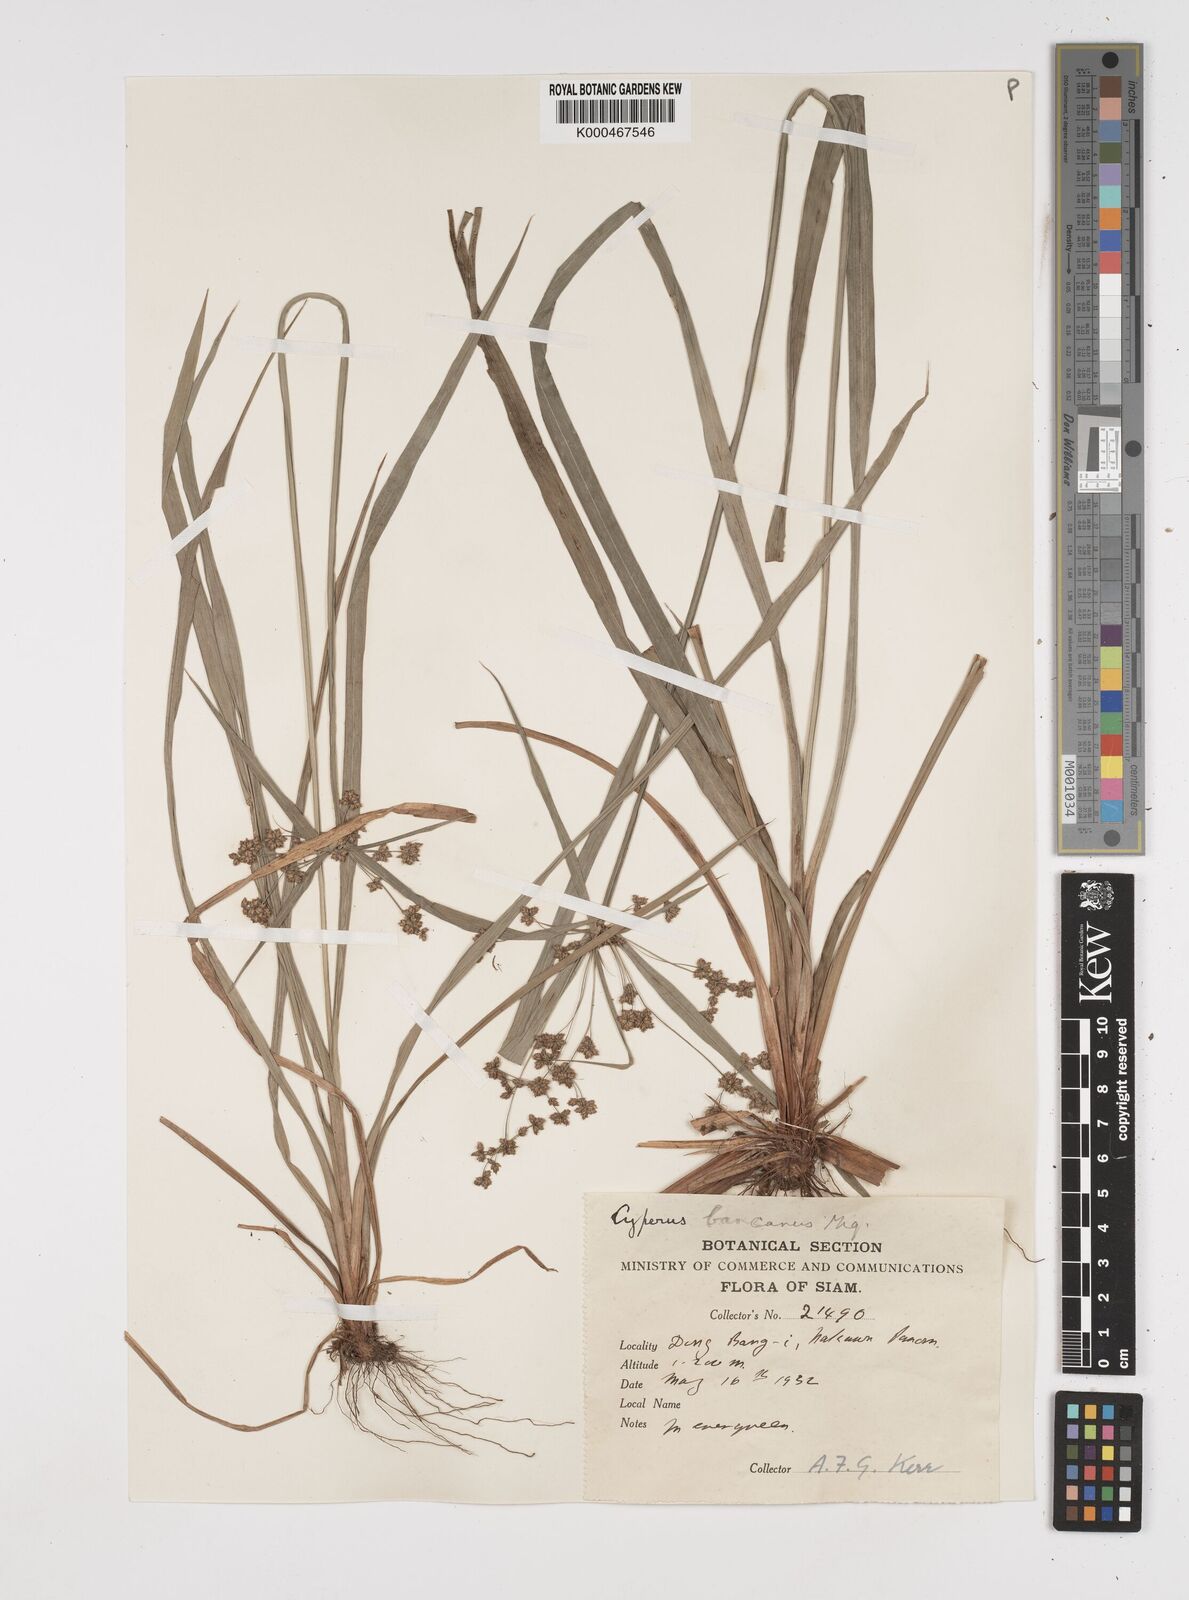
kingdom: Plantae
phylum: Tracheophyta
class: Liliopsida
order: Poales
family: Cyperaceae
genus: Cyperus
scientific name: Cyperus trialatus
